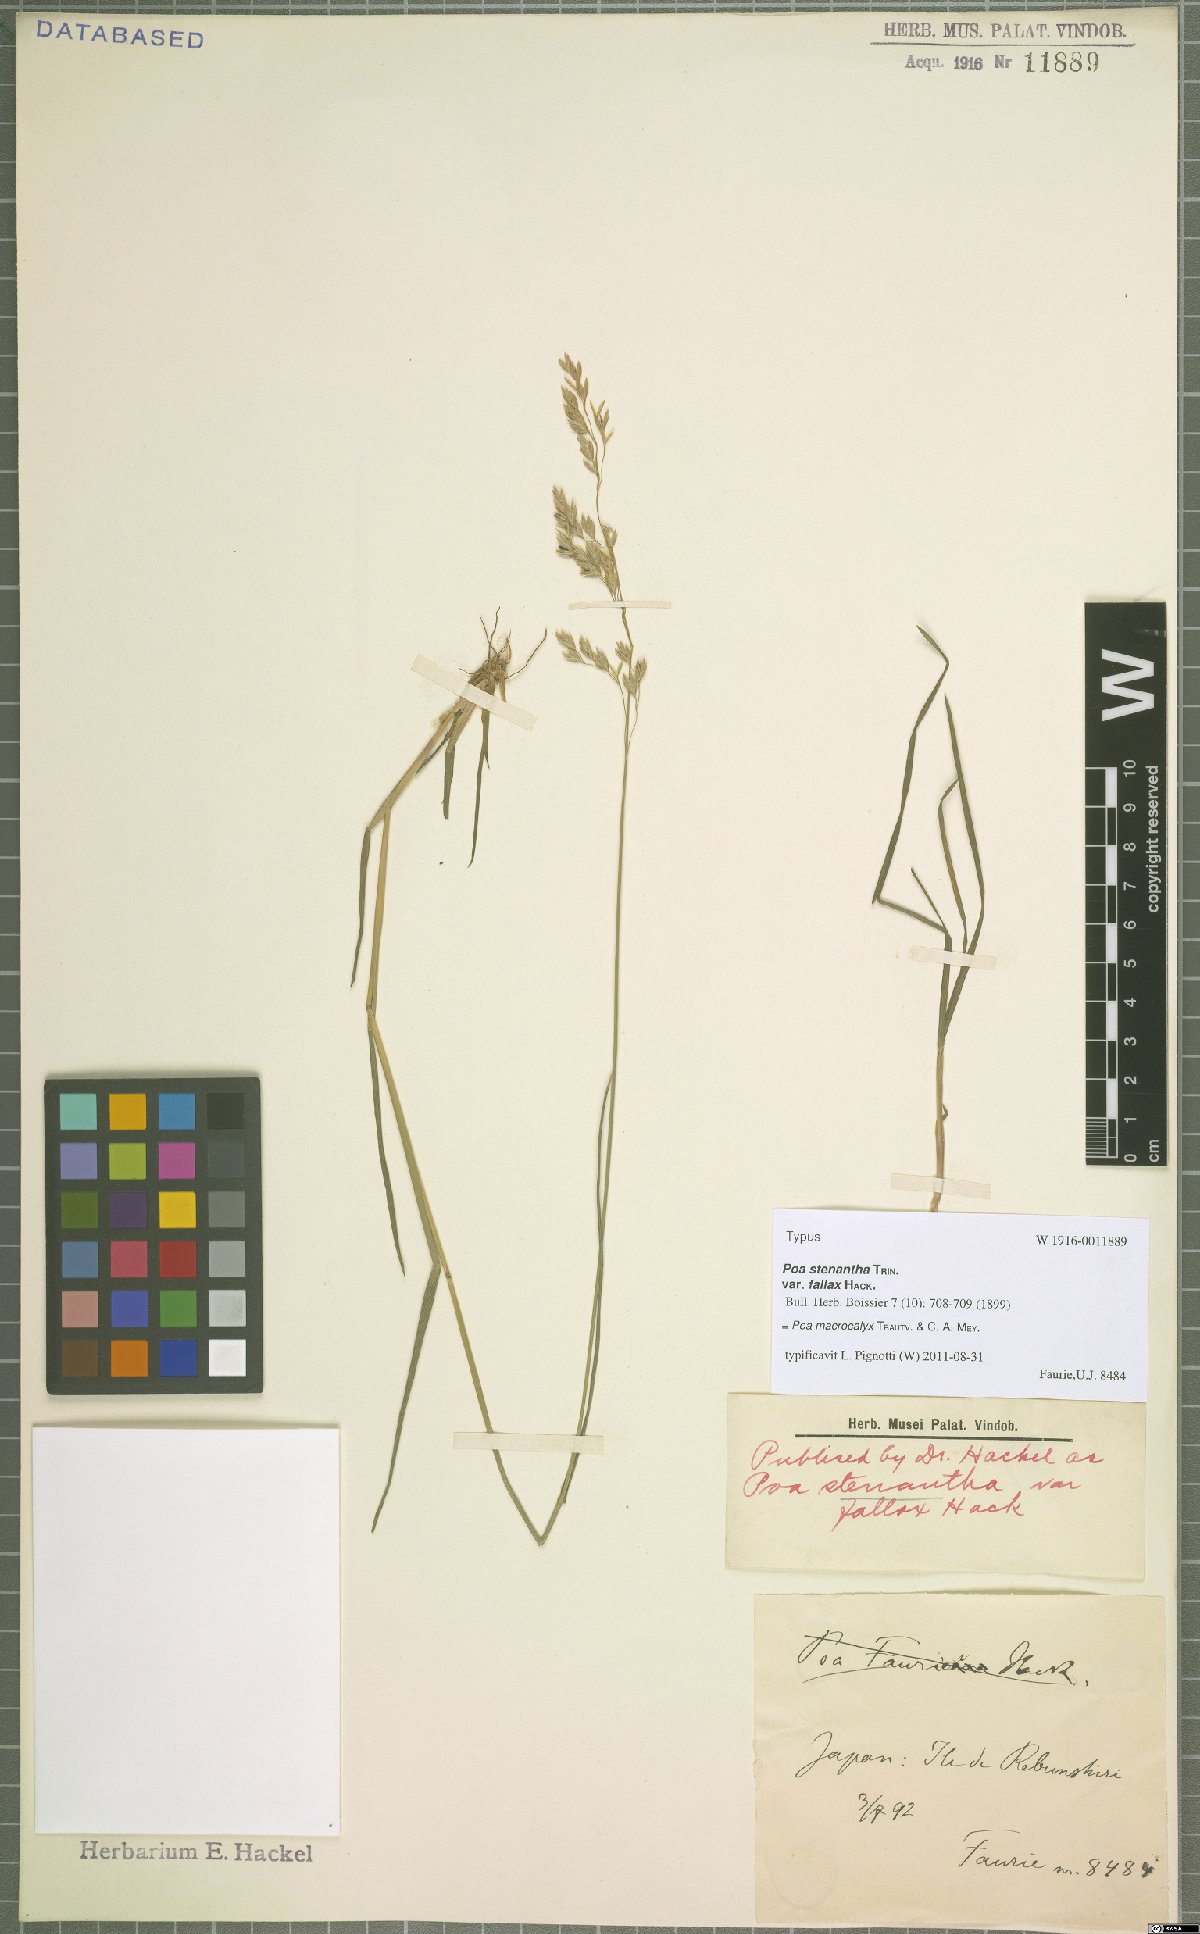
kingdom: Plantae
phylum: Tracheophyta
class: Liliopsida
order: Poales
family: Poaceae
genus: Poa
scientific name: Poa macrocalyx
